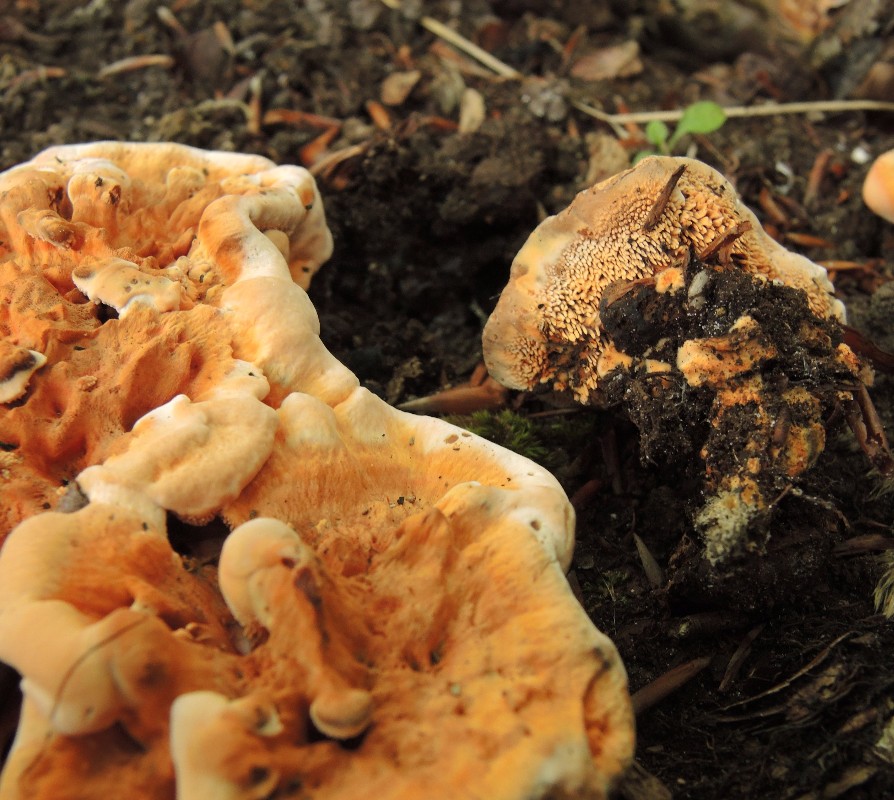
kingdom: Fungi
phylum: Basidiomycota
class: Agaricomycetes
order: Thelephorales
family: Bankeraceae
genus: Hydnellum
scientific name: Hydnellum auratile
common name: teglrød korkpigsvamp
